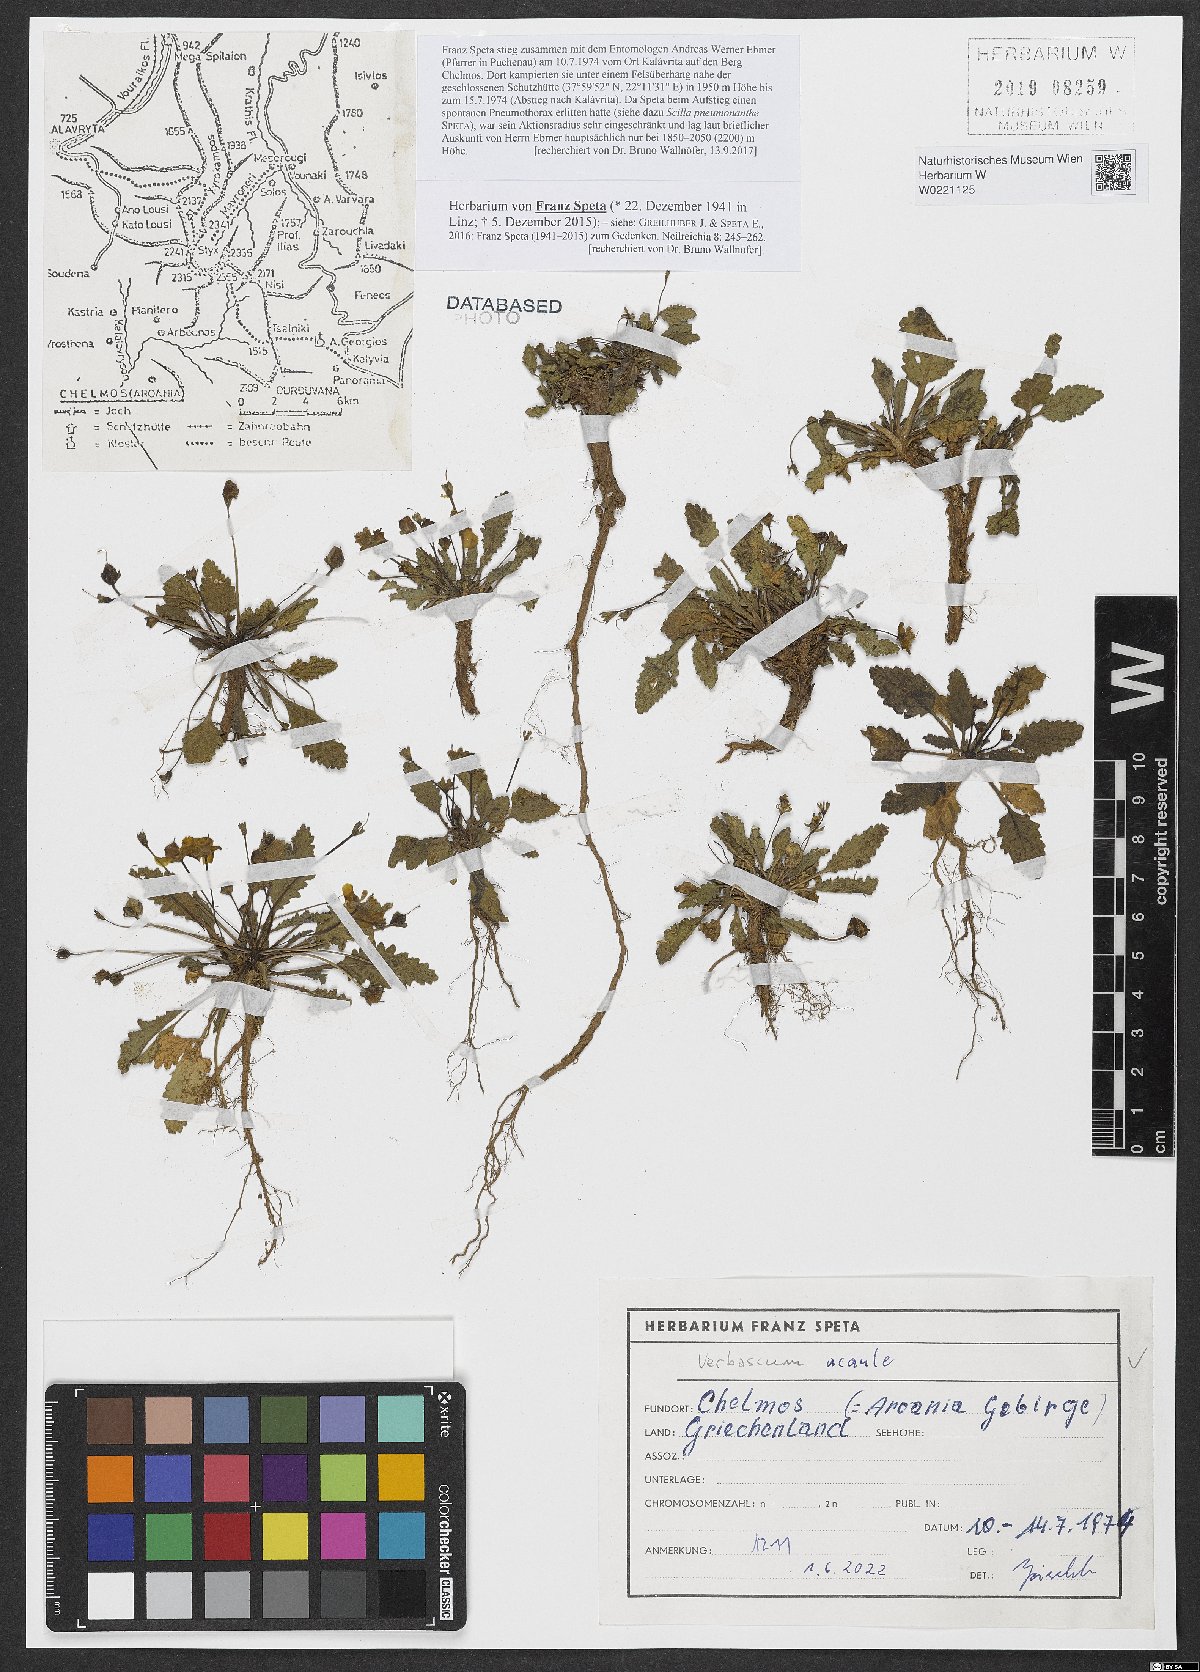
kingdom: Plantae
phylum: Tracheophyta
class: Magnoliopsida
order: Lamiales
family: Scrophulariaceae
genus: Verbascum
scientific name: Verbascum acaule
